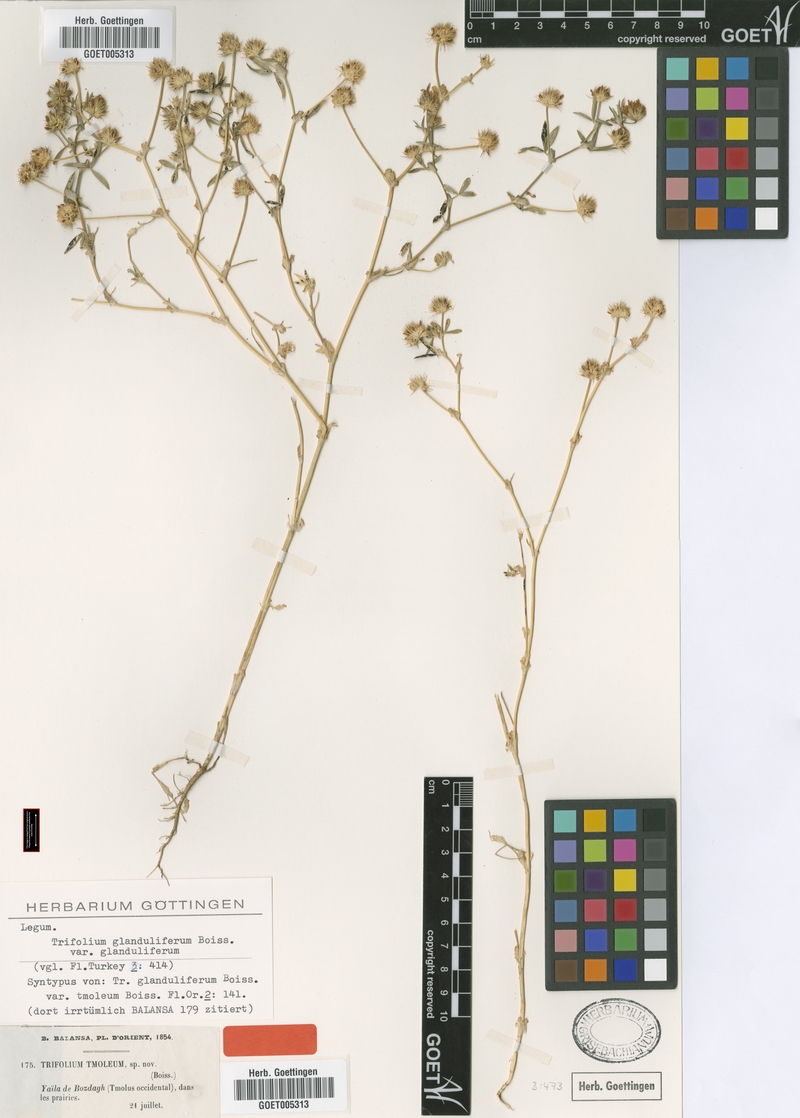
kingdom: Plantae
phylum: Tracheophyta
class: Magnoliopsida
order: Fabales
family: Fabaceae
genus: Trifolium
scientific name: Trifolium glanduliferum
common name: Glandular clover
